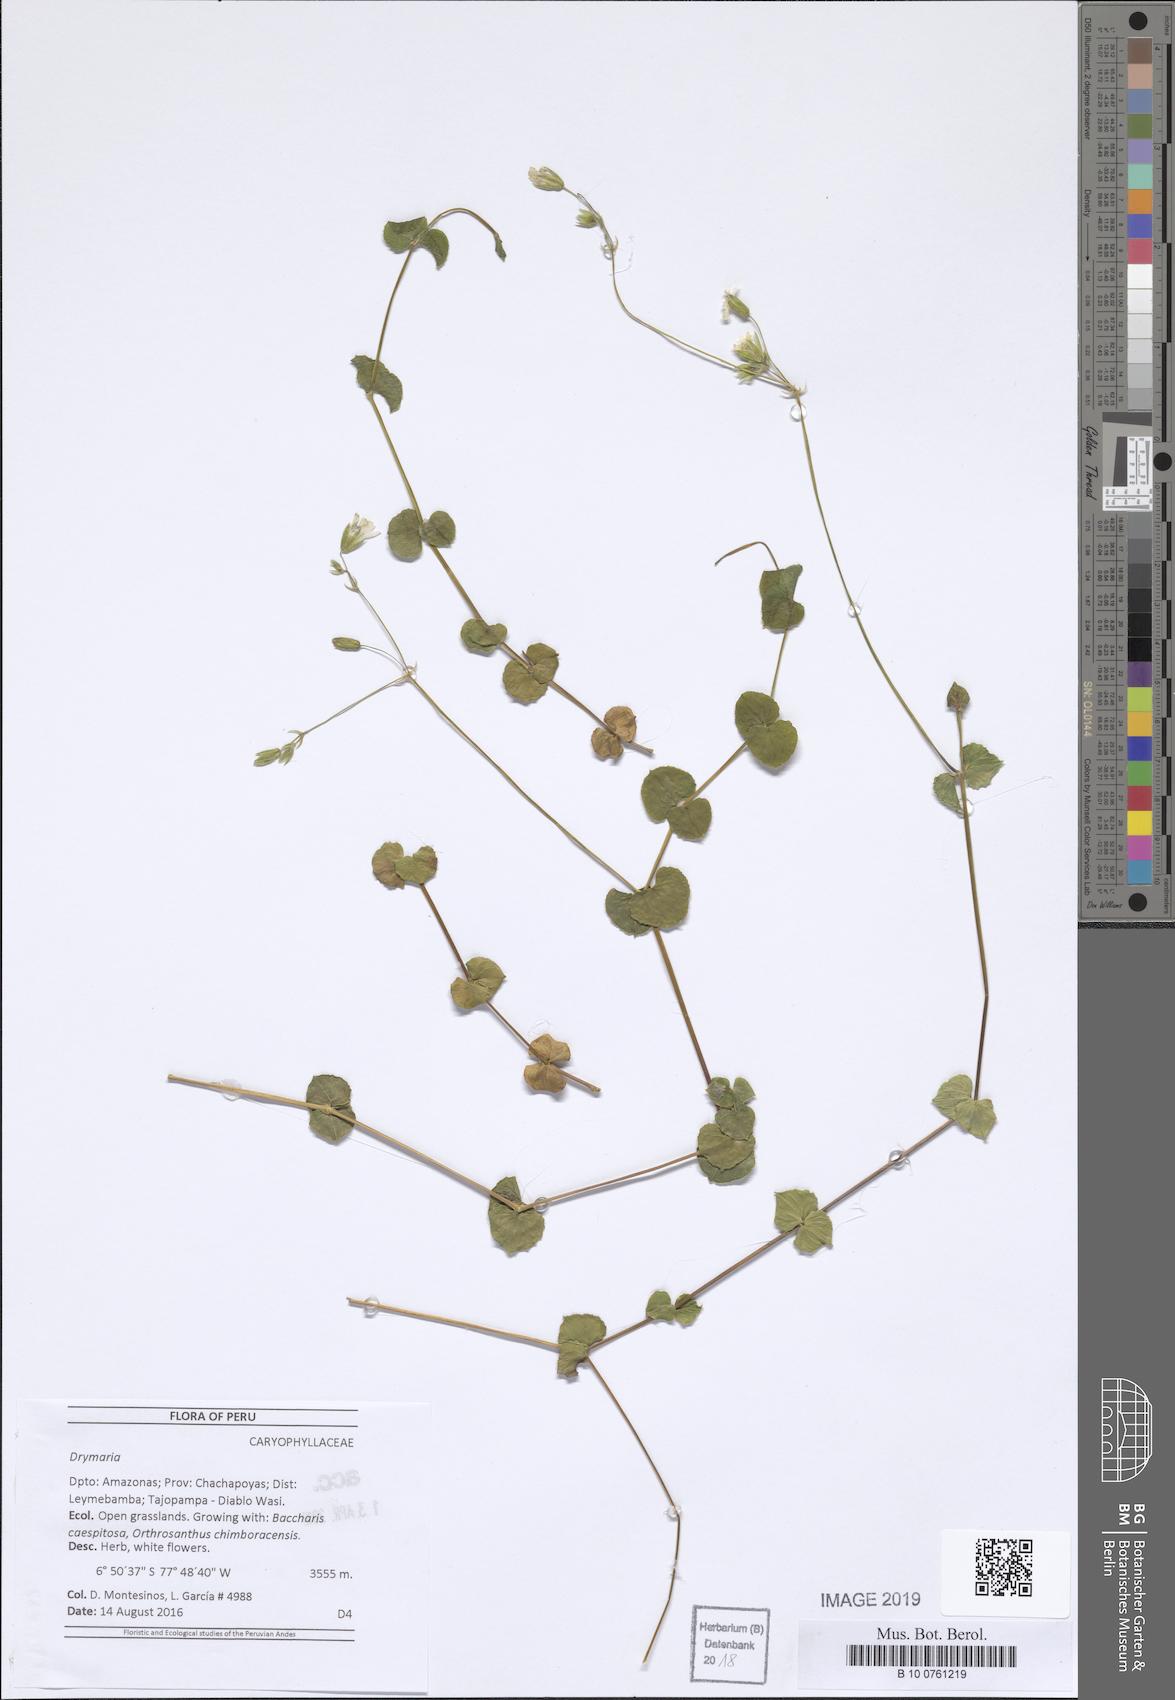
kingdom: Plantae
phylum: Tracheophyta
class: Magnoliopsida
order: Caryophyllales
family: Caryophyllaceae
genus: Drymaria
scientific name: Drymaria
